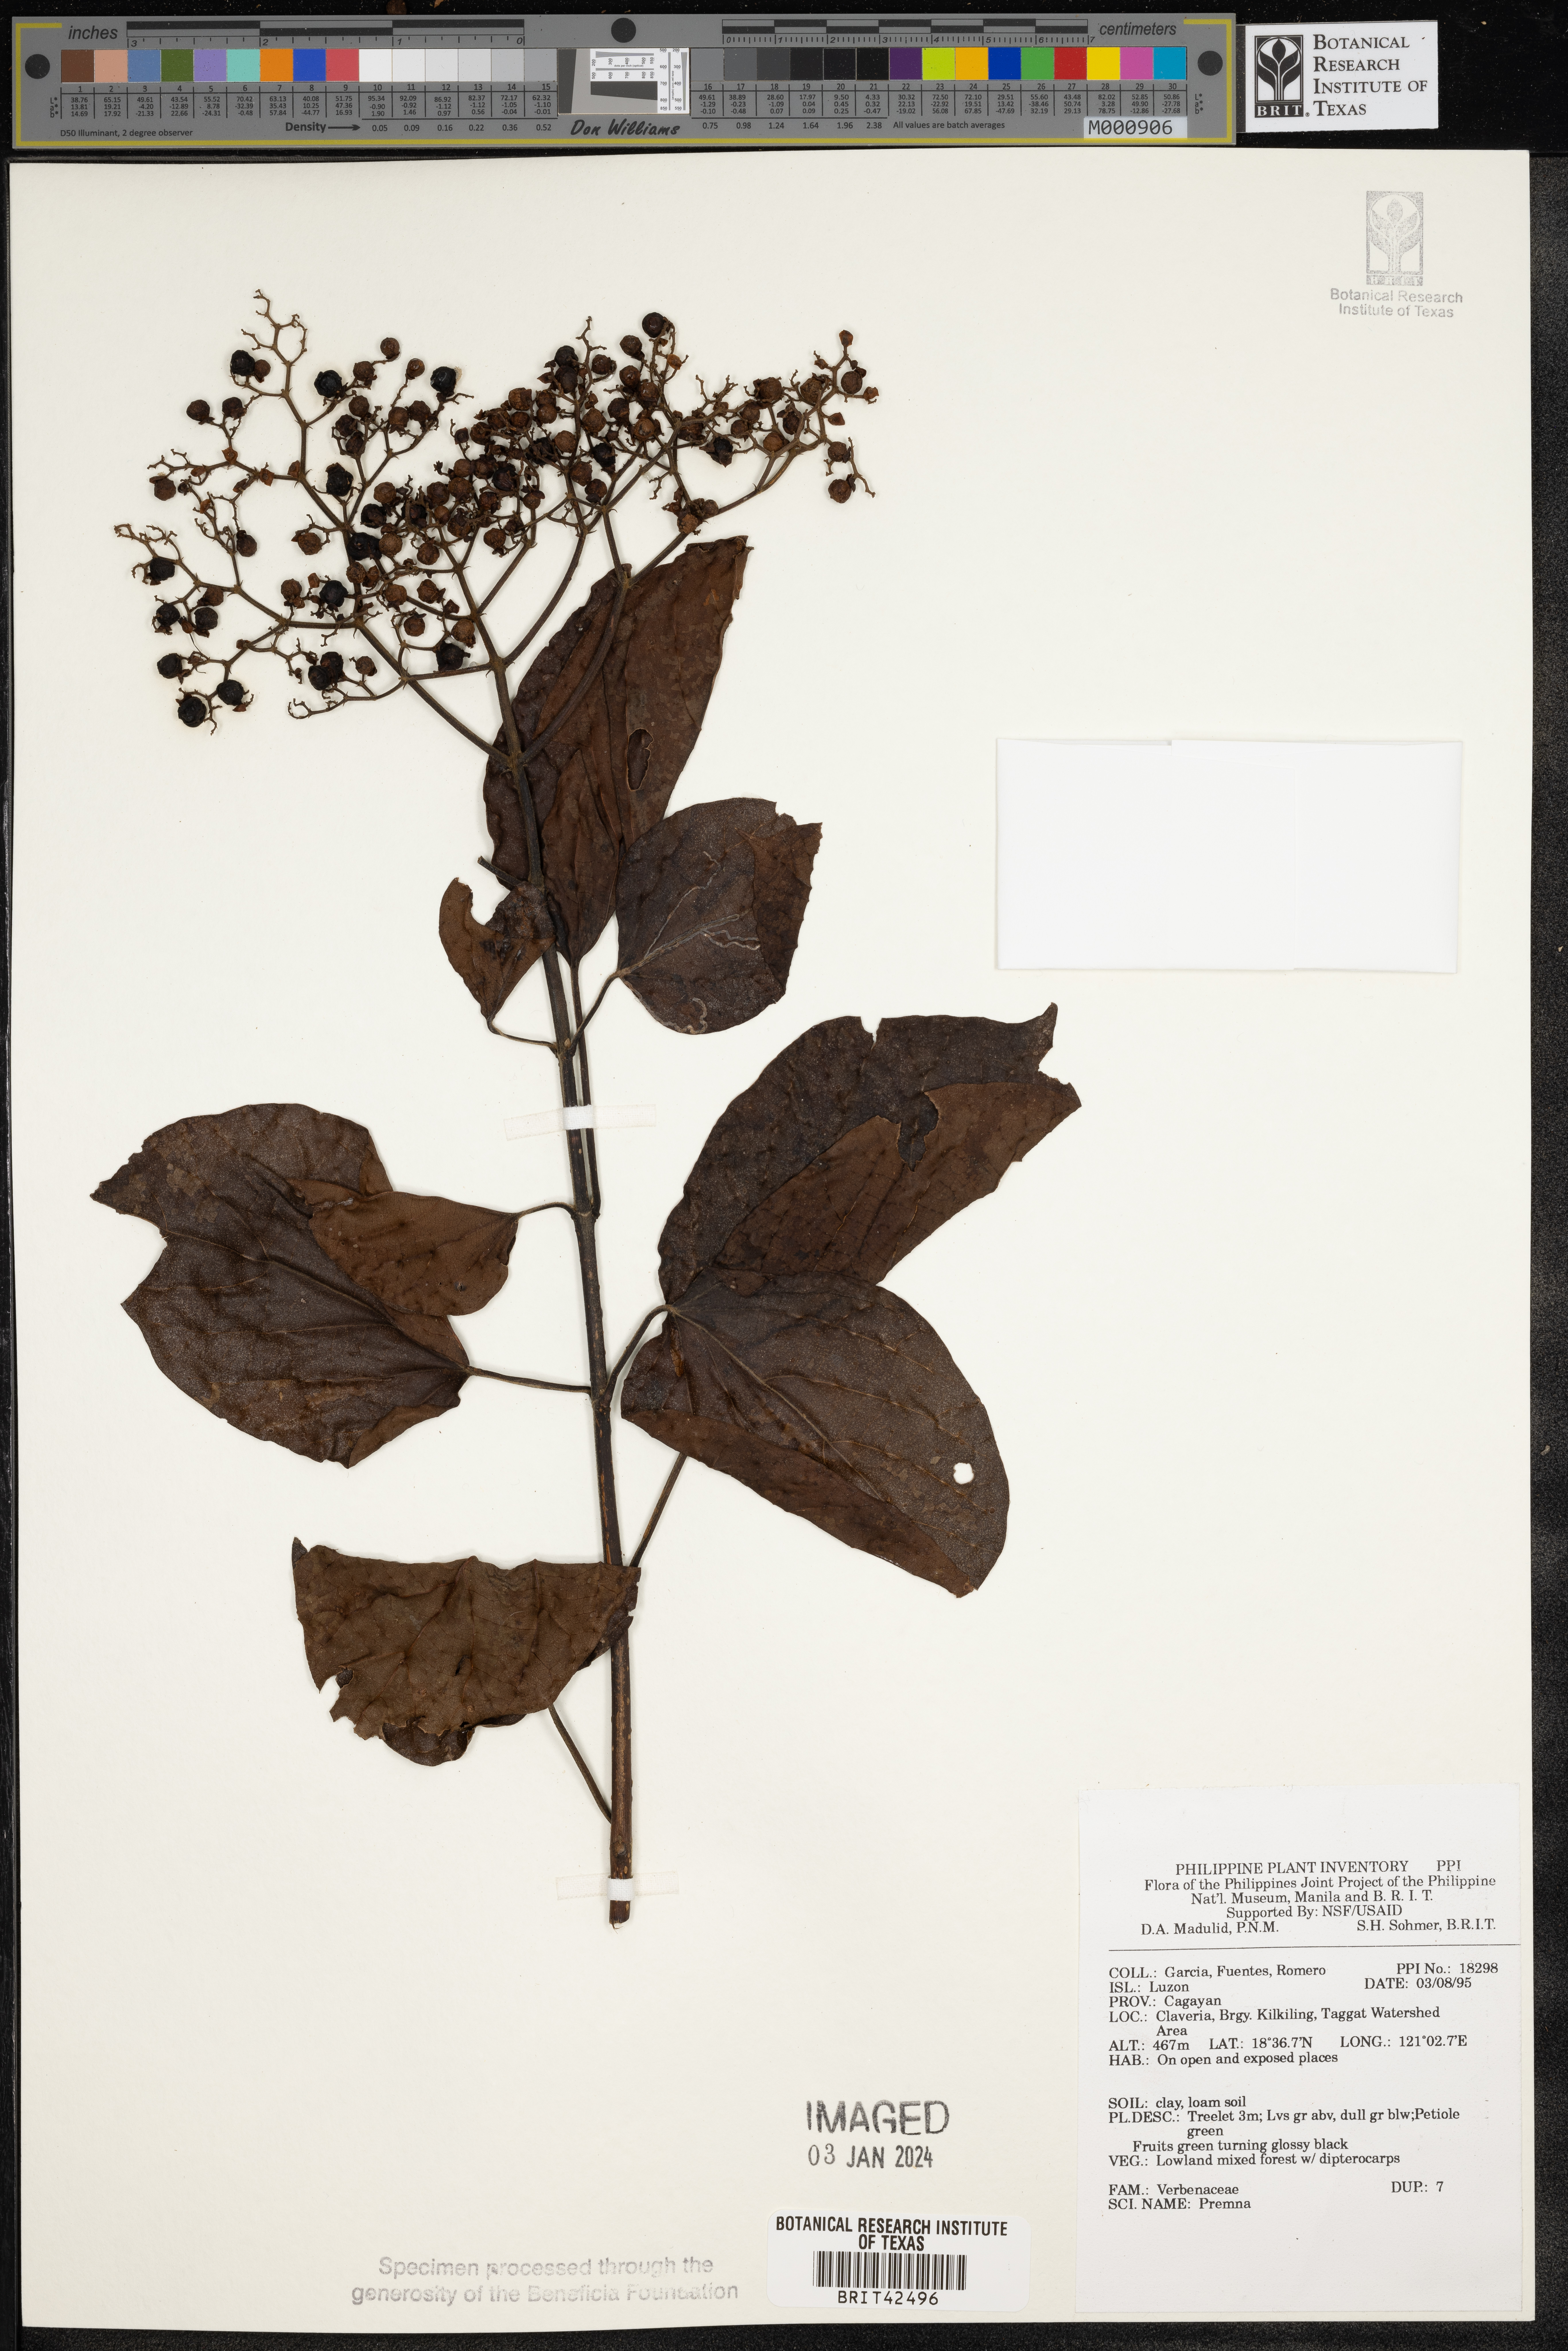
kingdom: Plantae
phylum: Tracheophyta
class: Magnoliopsida
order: Lamiales
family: Lamiaceae
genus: Premna
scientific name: Premna
